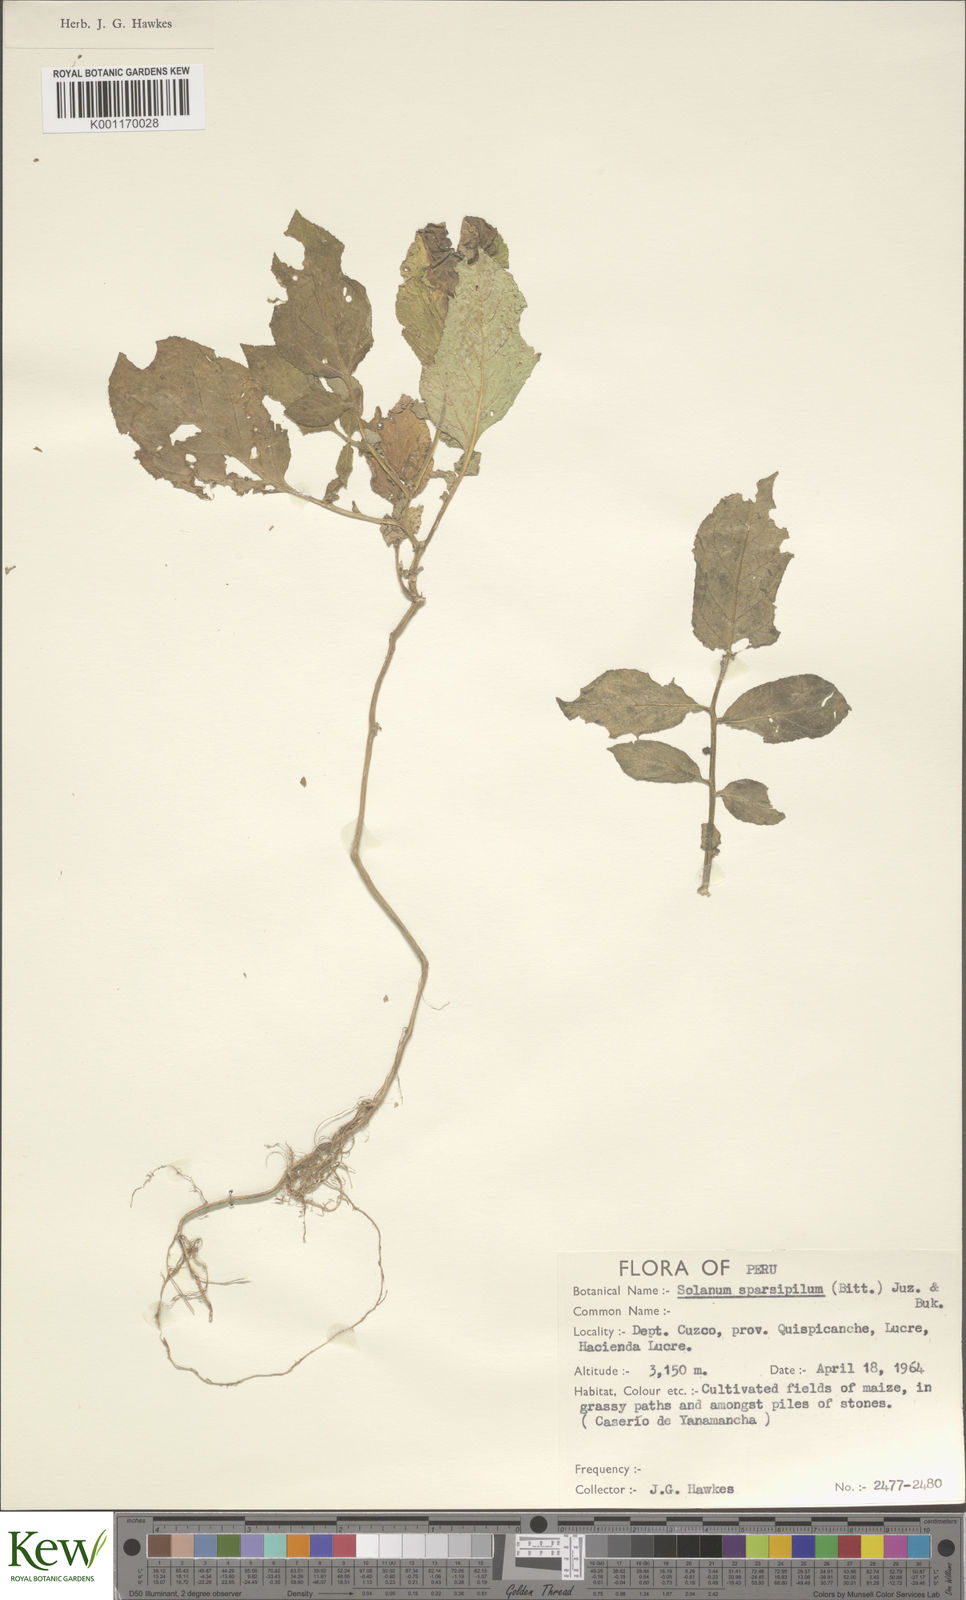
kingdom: Plantae
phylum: Tracheophyta
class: Magnoliopsida
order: Solanales
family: Solanaceae
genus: Solanum
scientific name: Solanum brevicaule
